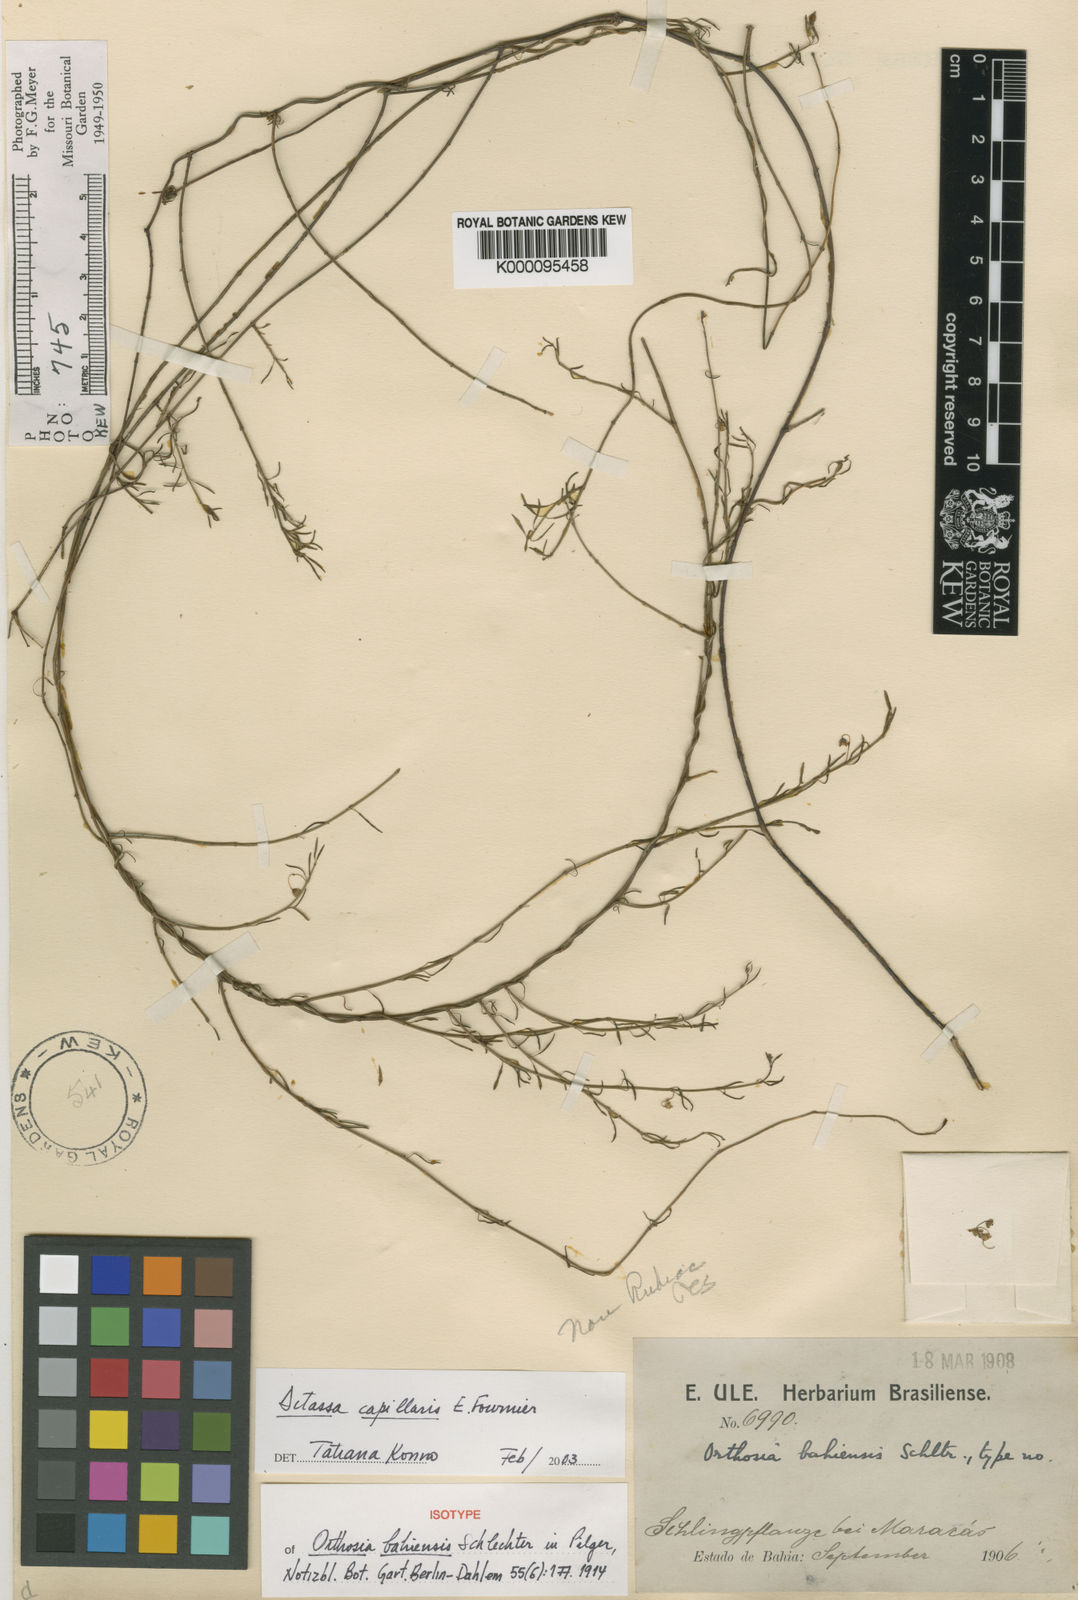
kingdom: Plantae
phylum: Tracheophyta
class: Magnoliopsida
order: Gentianales
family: Apocynaceae
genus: Ditassa
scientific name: Ditassa capillaris
